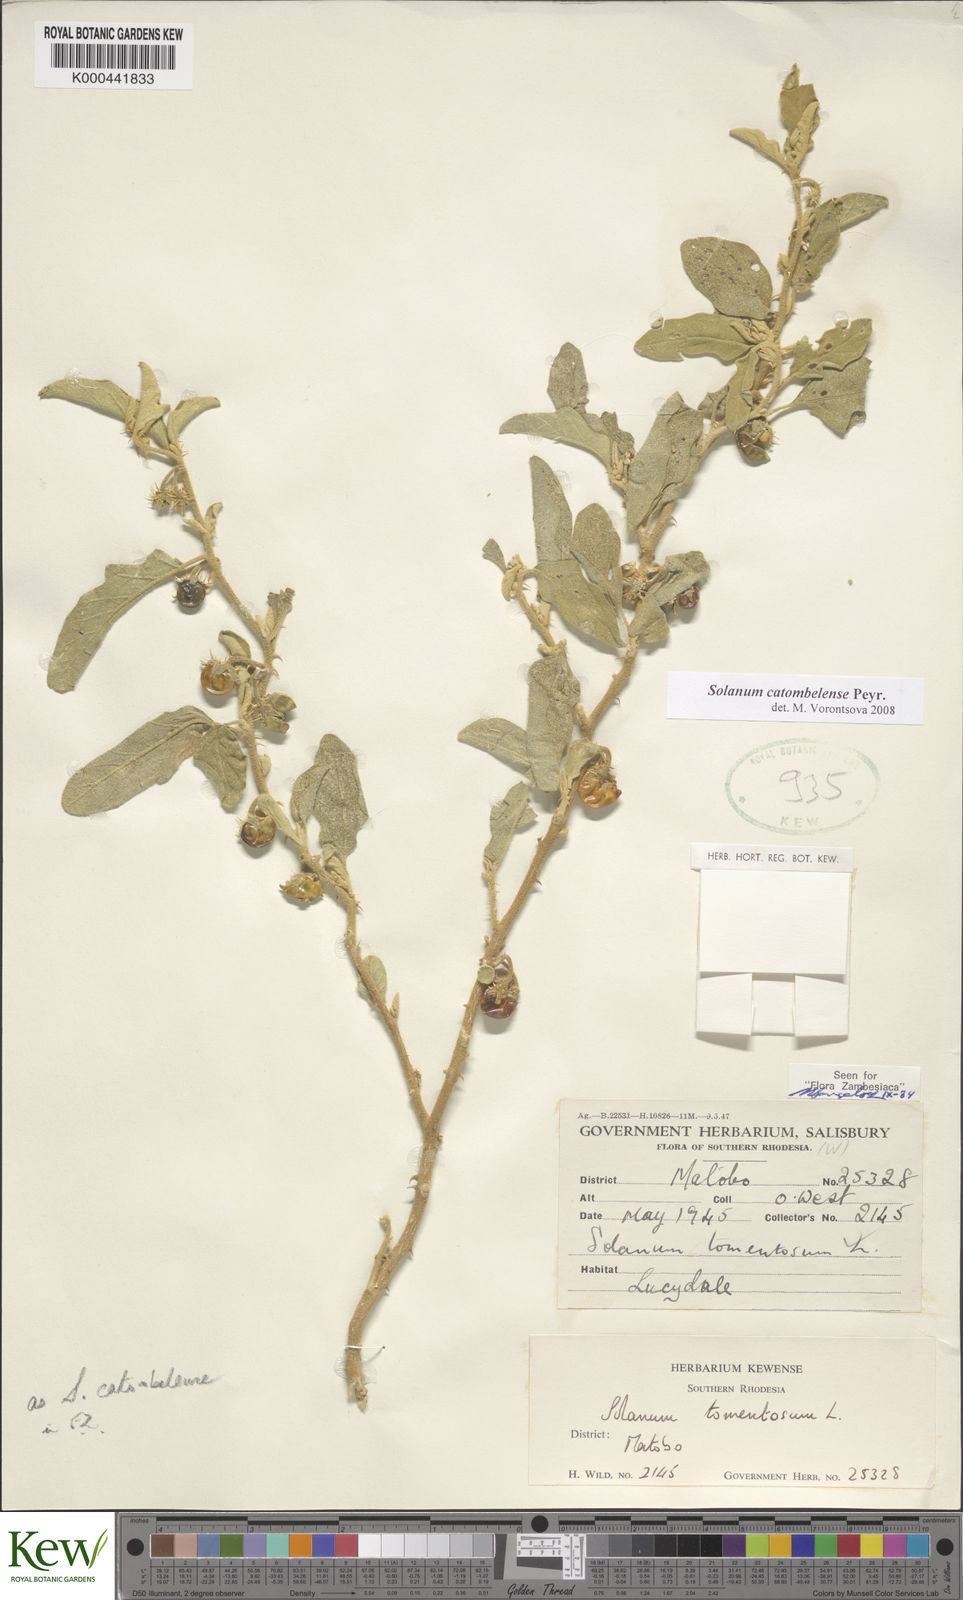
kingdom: Plantae
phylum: Tracheophyta
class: Magnoliopsida
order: Solanales
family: Solanaceae
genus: Solanum
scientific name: Solanum catombelense
